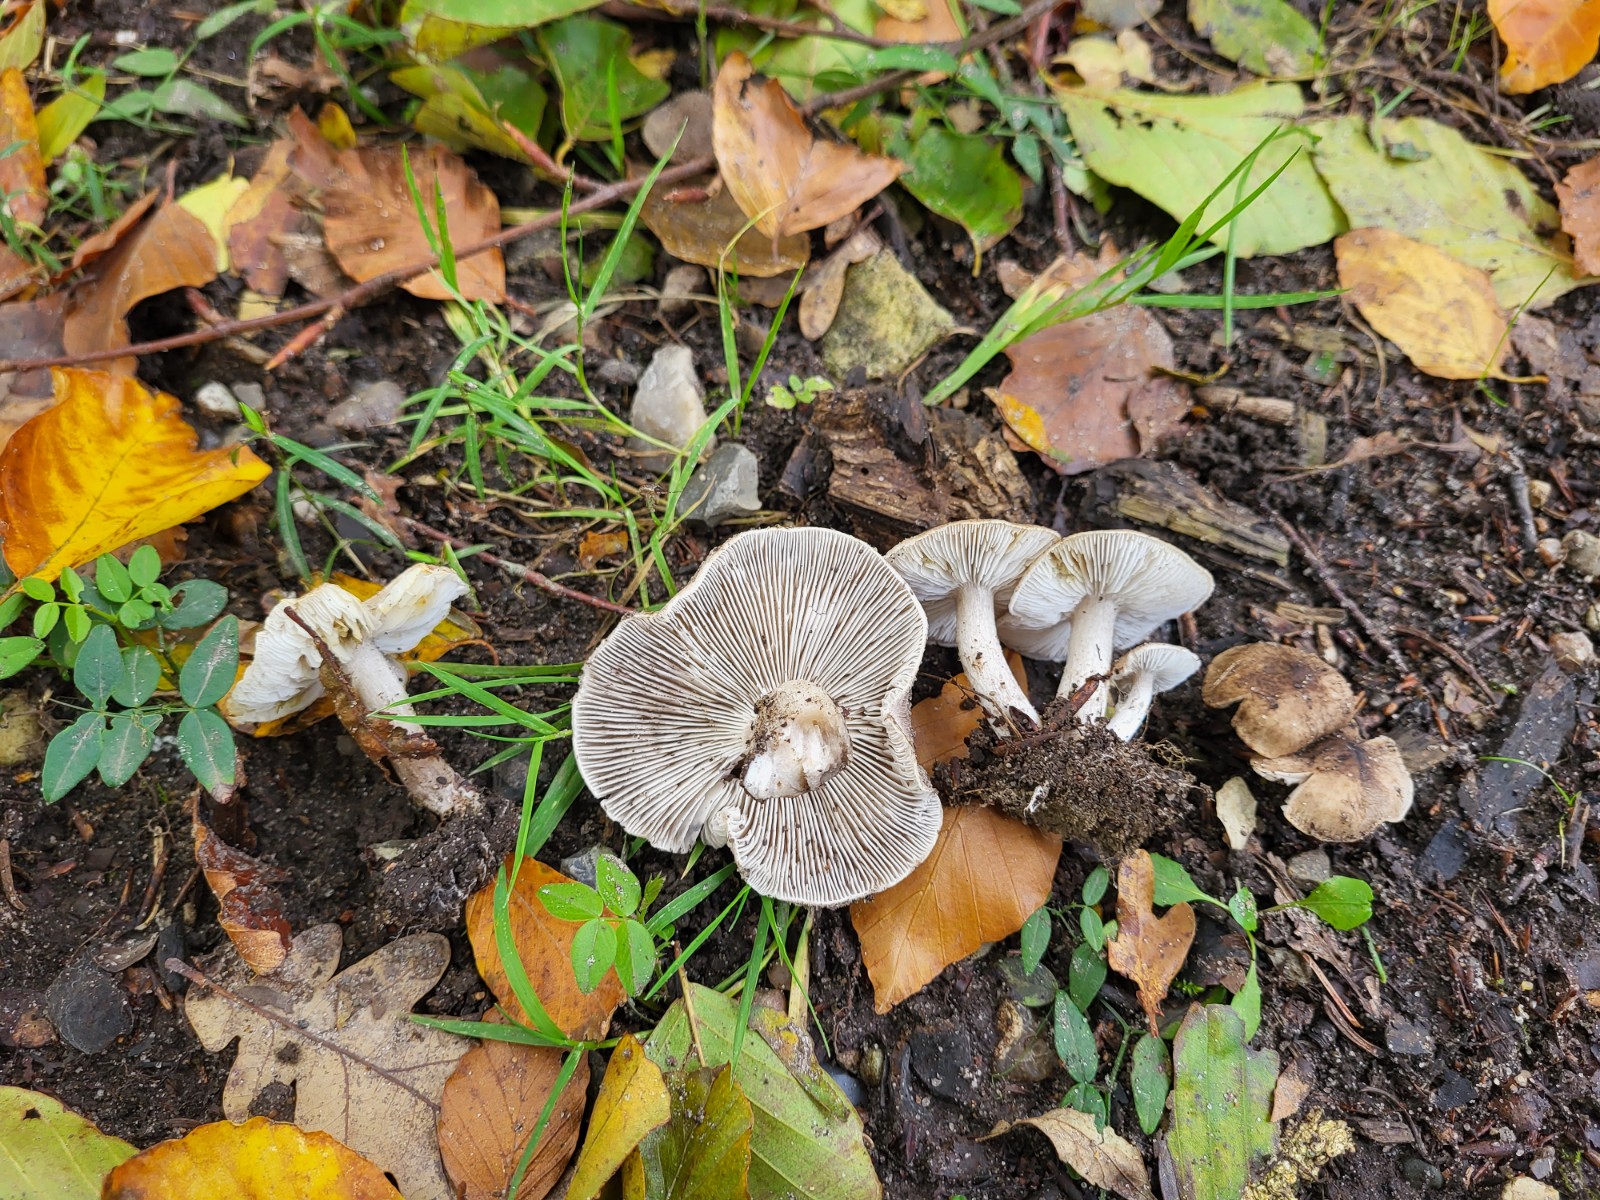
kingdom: Fungi
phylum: Basidiomycota
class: Agaricomycetes
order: Agaricales
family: Tricholomataceae
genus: Tricholoma
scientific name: Tricholoma scalpturatum
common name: gulplettet ridderhat
